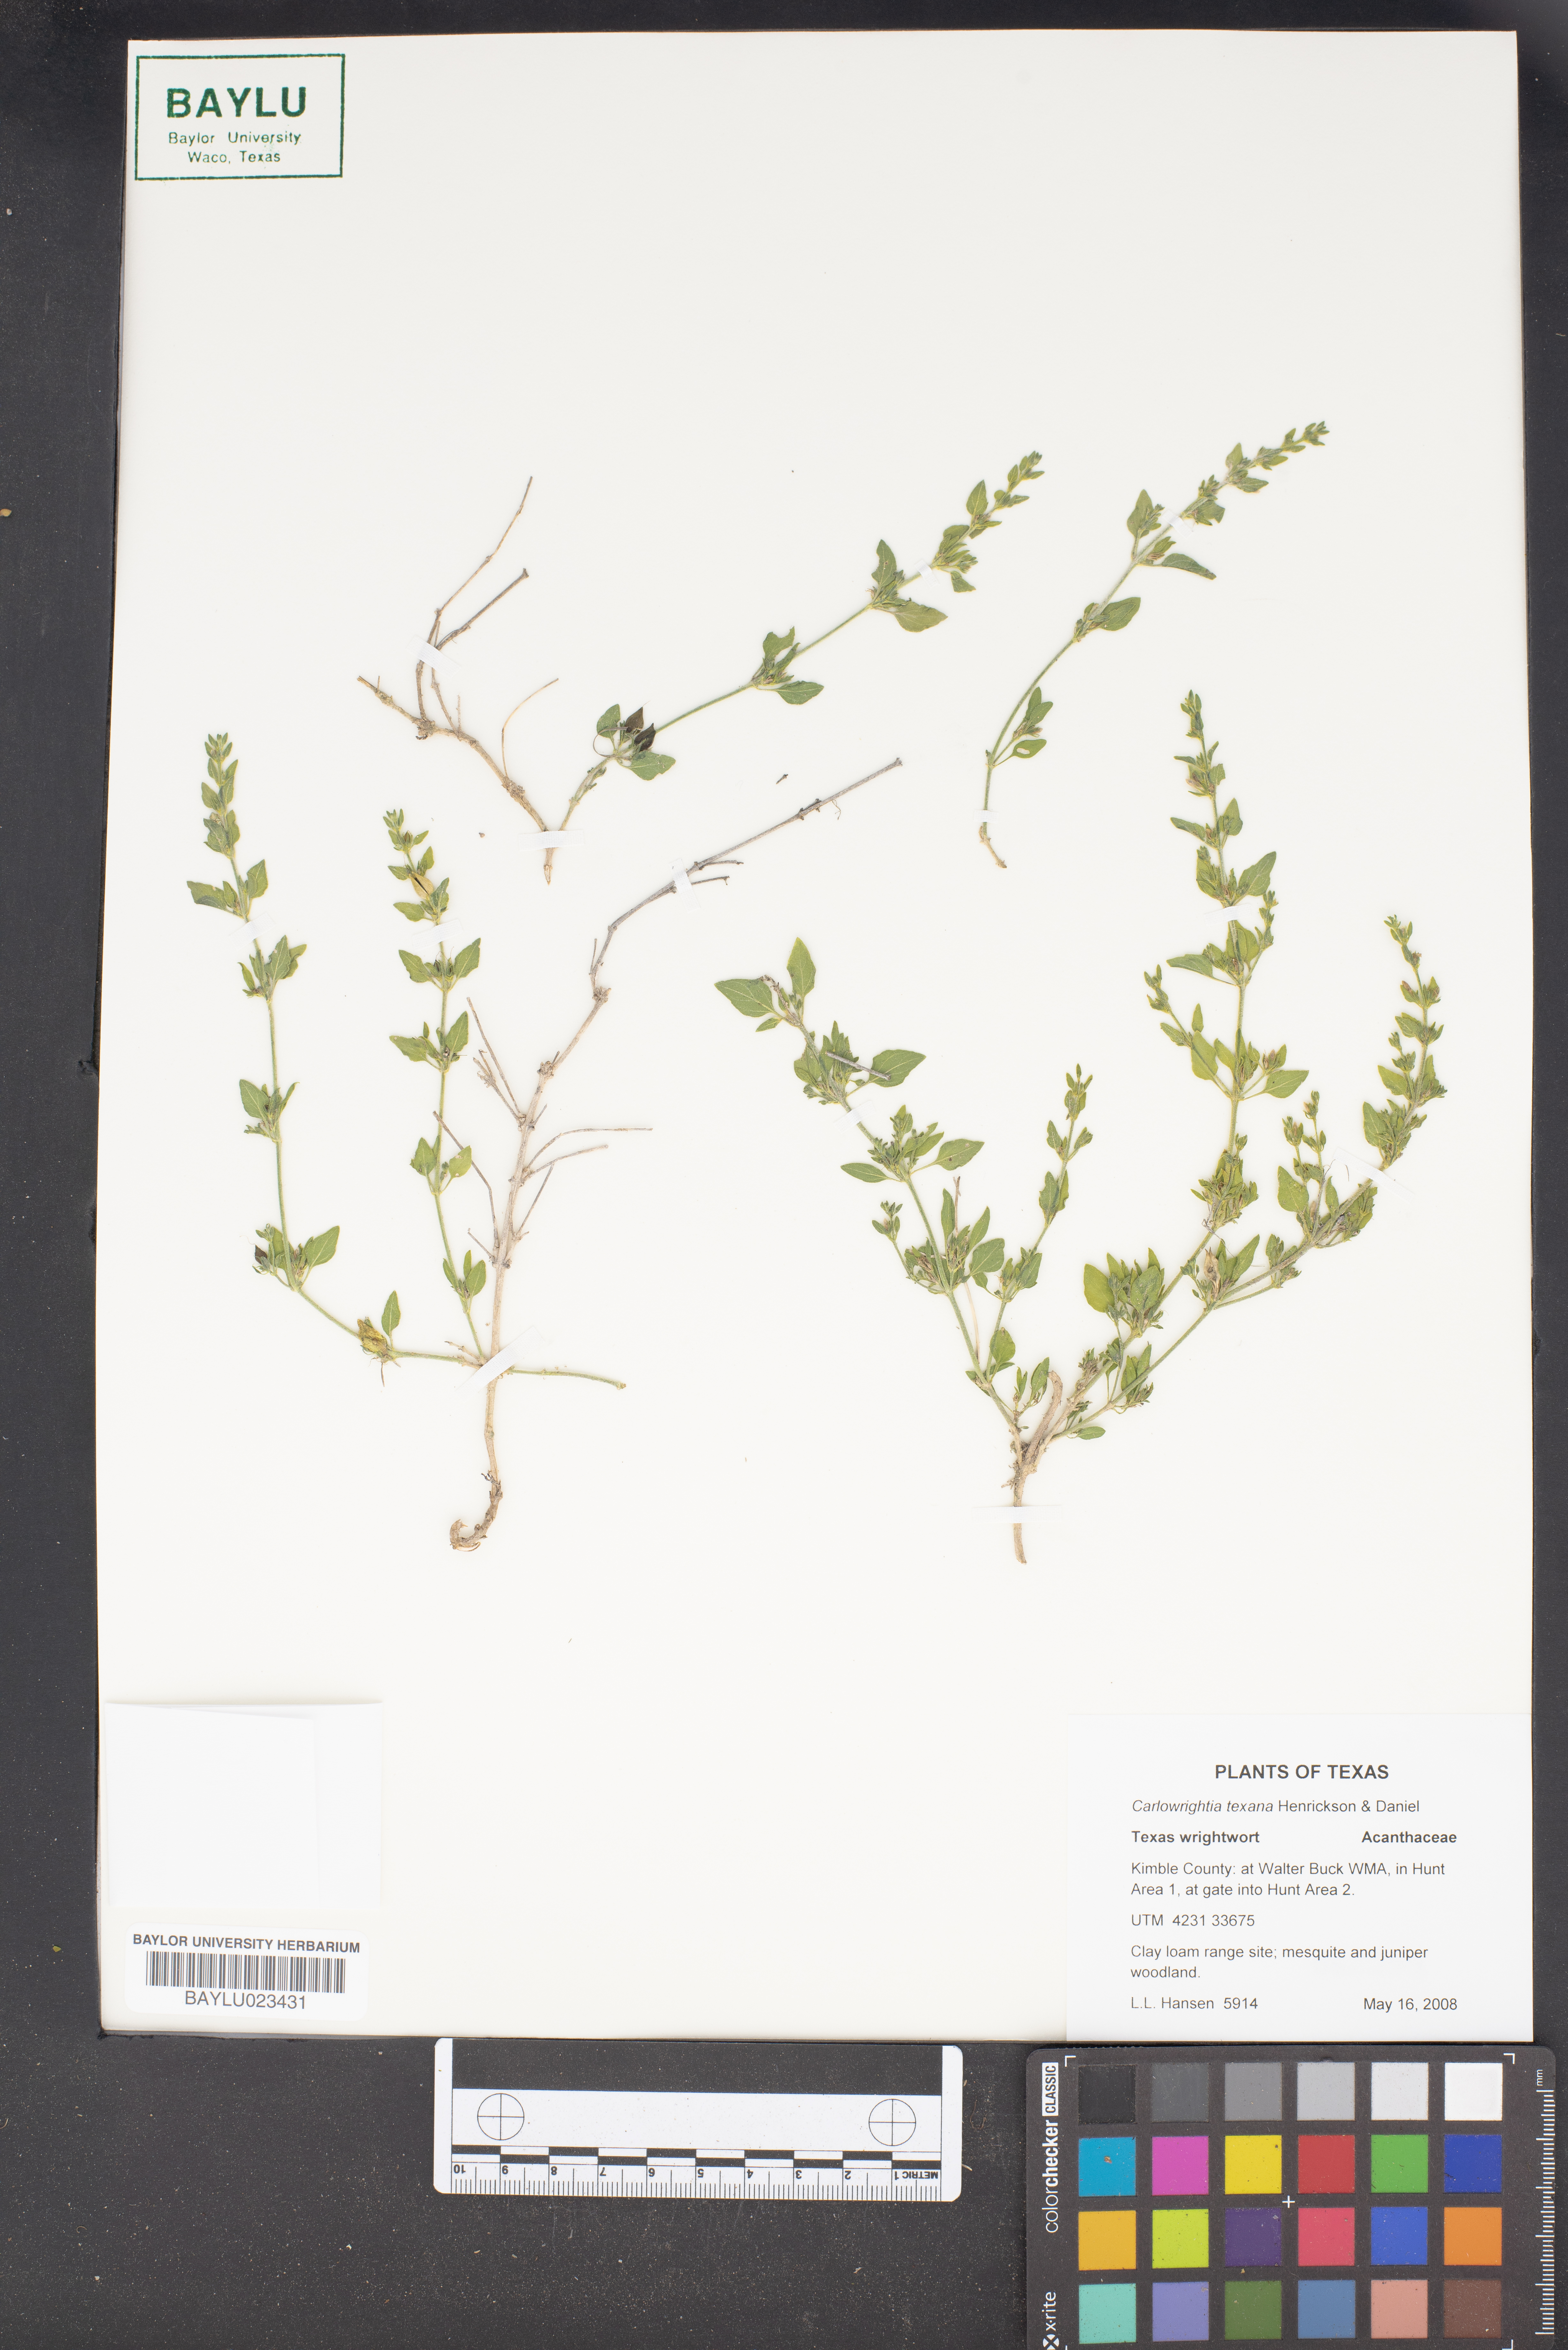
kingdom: Plantae
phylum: Tracheophyta
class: Magnoliopsida
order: Lamiales
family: Acanthaceae
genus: Carlowrightia
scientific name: Carlowrightia texana
